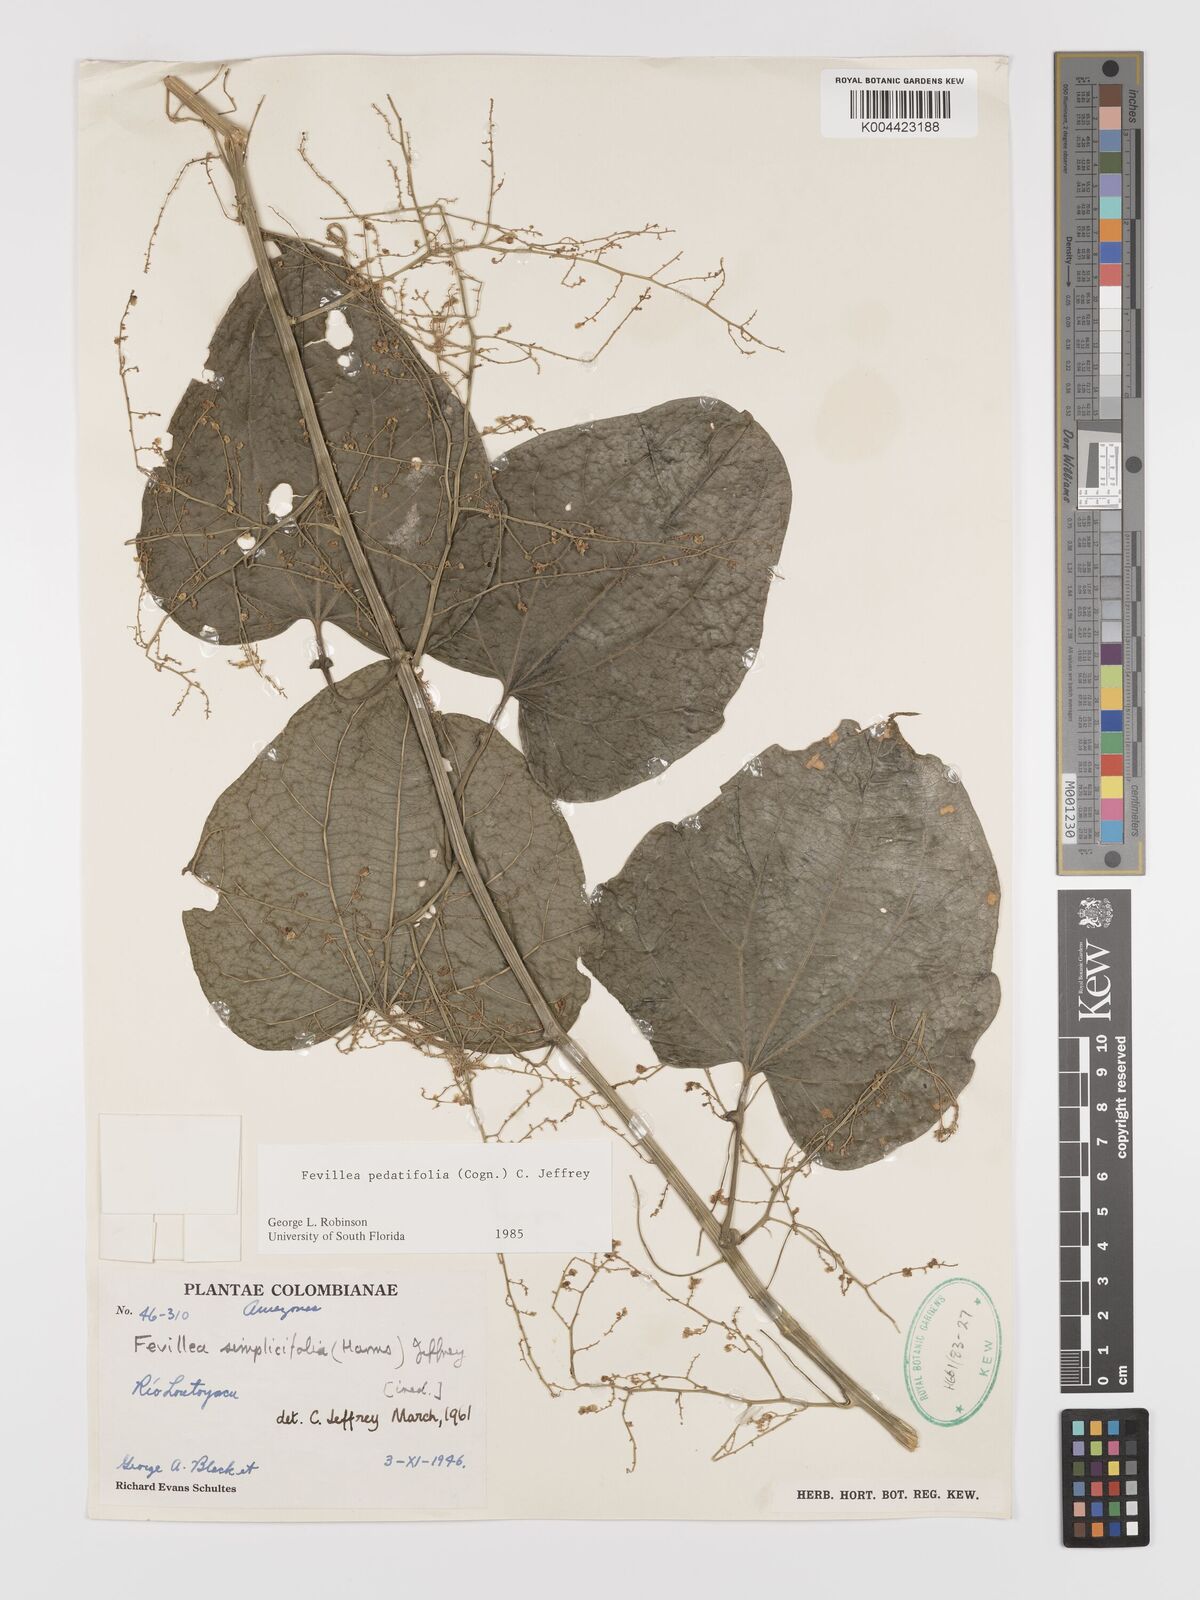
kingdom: Plantae
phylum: Tracheophyta
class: Magnoliopsida
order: Cucurbitales
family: Cucurbitaceae
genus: Fevillea
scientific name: Fevillea pedatifolia
